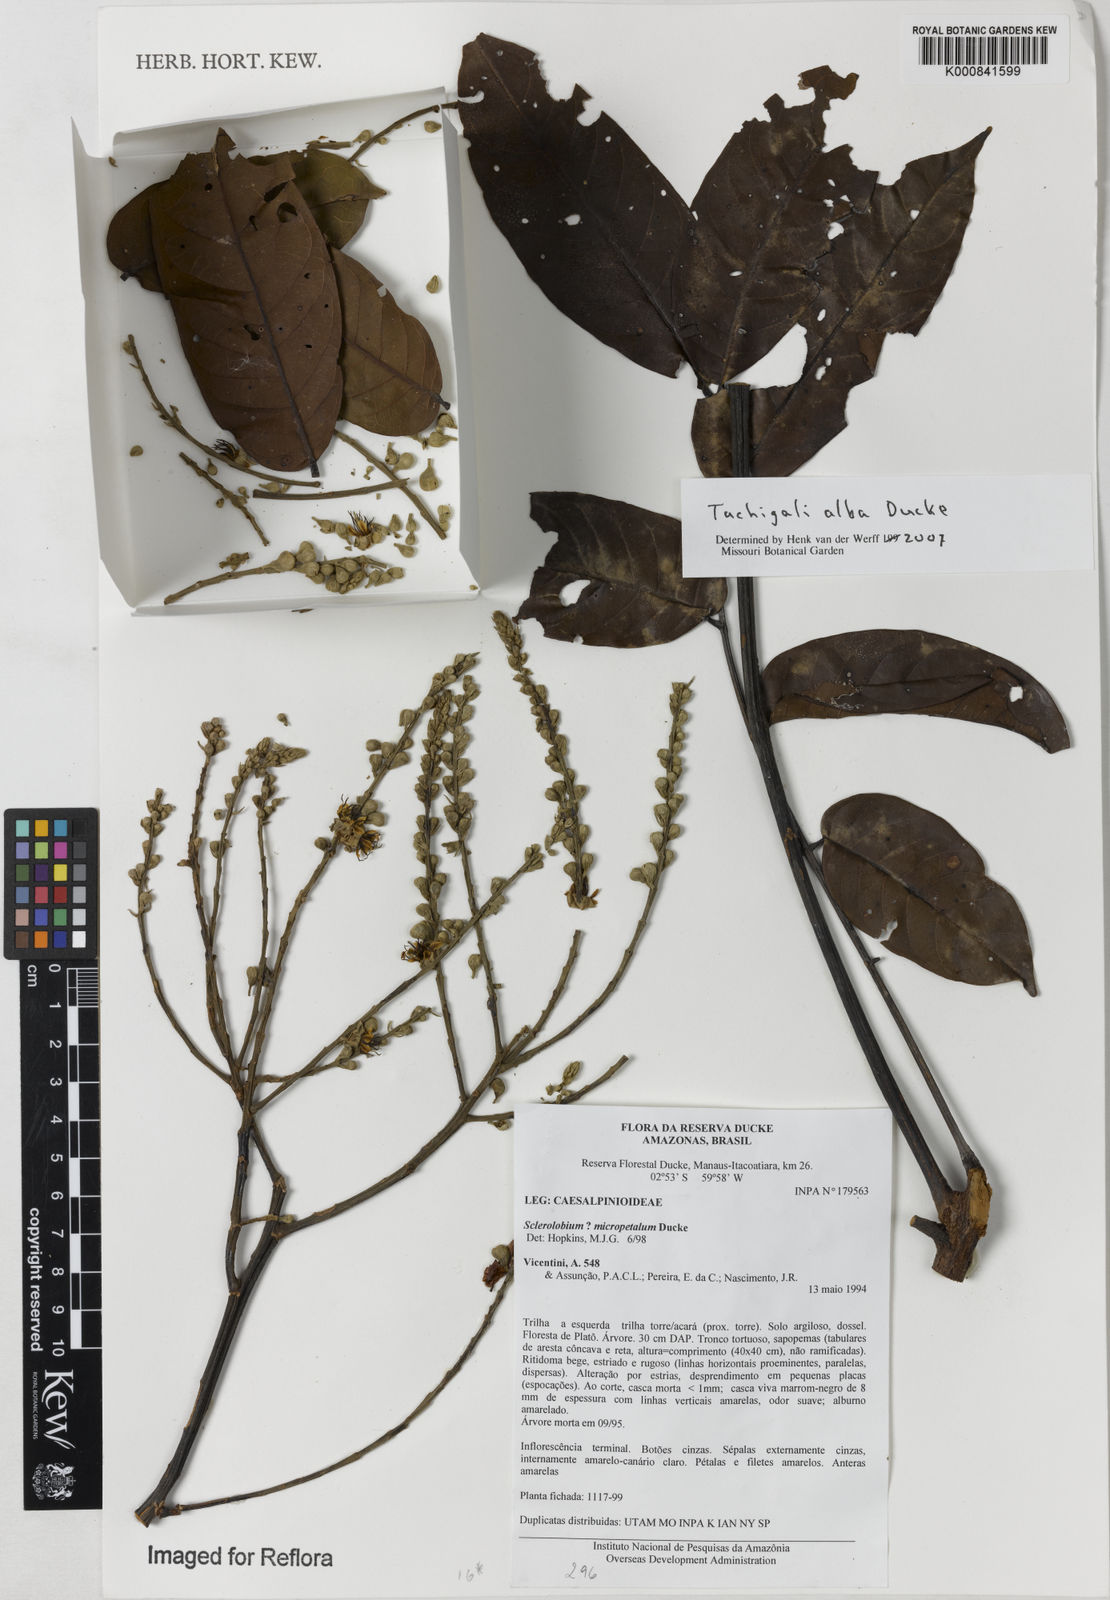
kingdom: Plantae
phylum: Tracheophyta
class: Magnoliopsida
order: Fabales
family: Fabaceae
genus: Tachigali
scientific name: Tachigali alba
